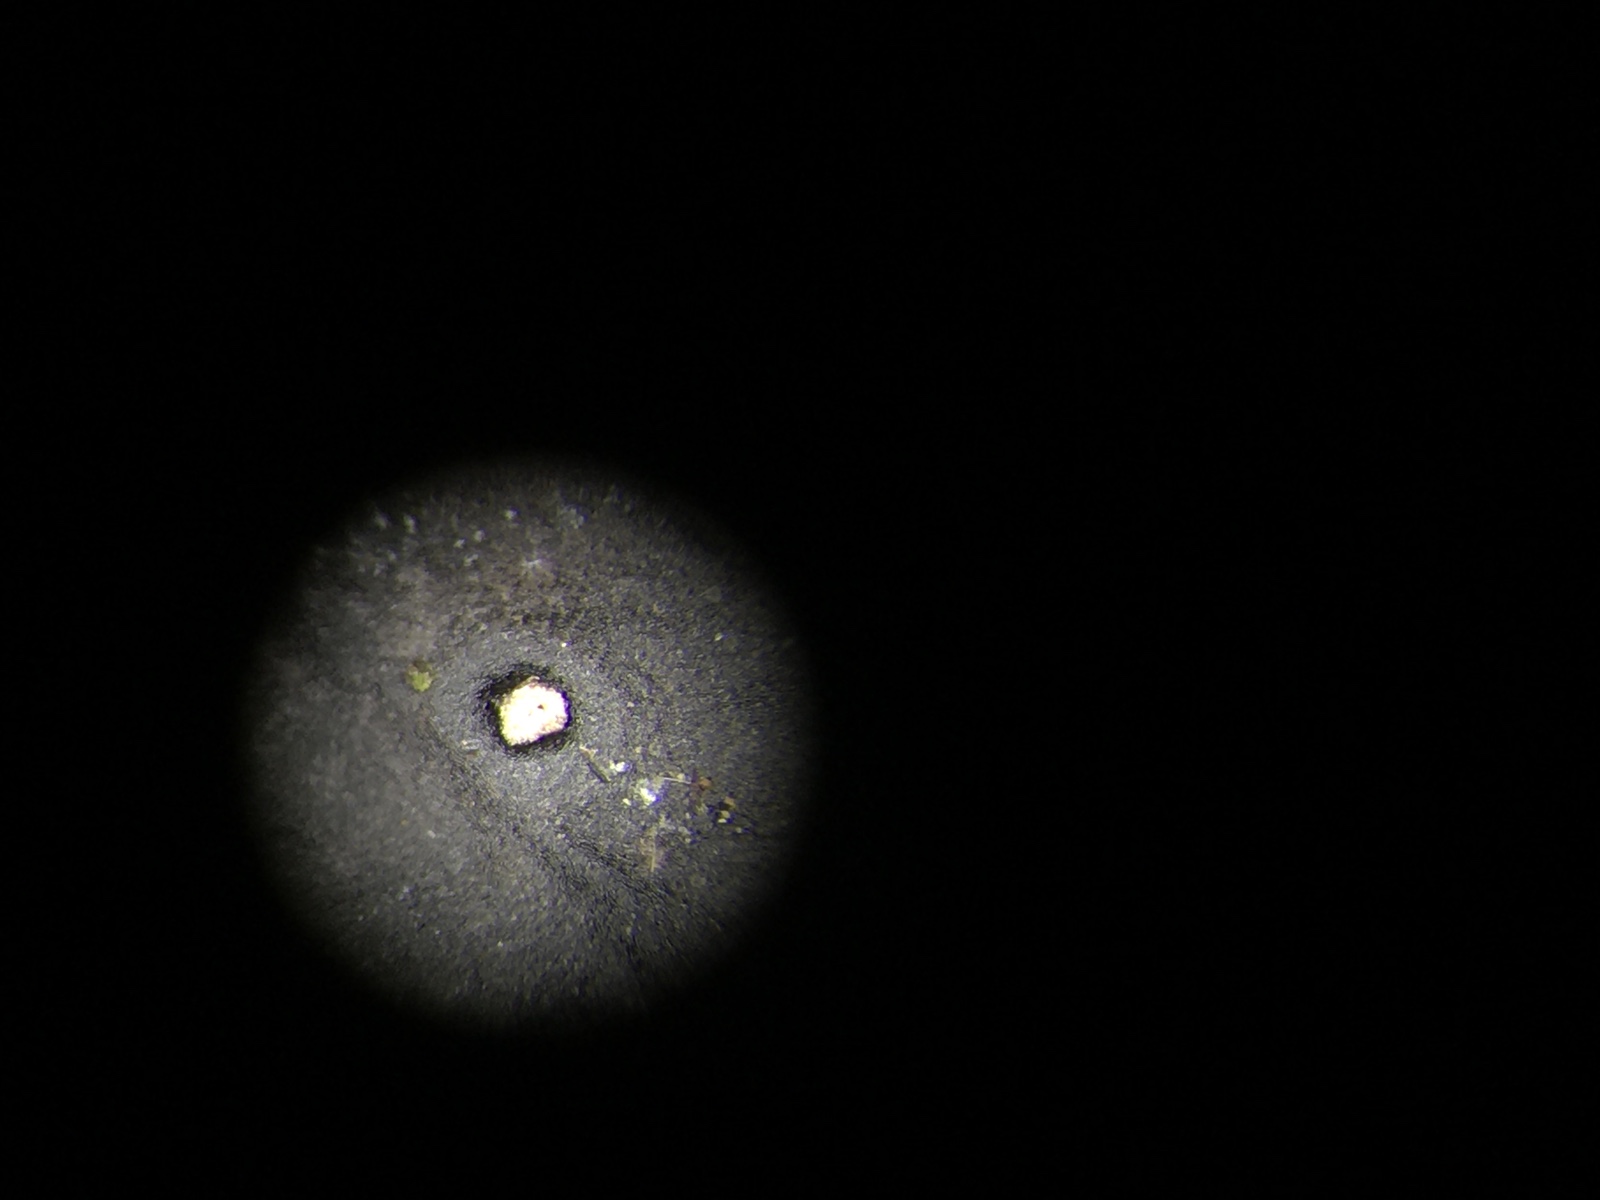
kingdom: Fungi
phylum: Ascomycota
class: Leotiomycetes
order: Phacidiales
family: Phacidiaceae
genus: Phacidium
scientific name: Phacidium lauri
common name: kristtorn-tandskive
